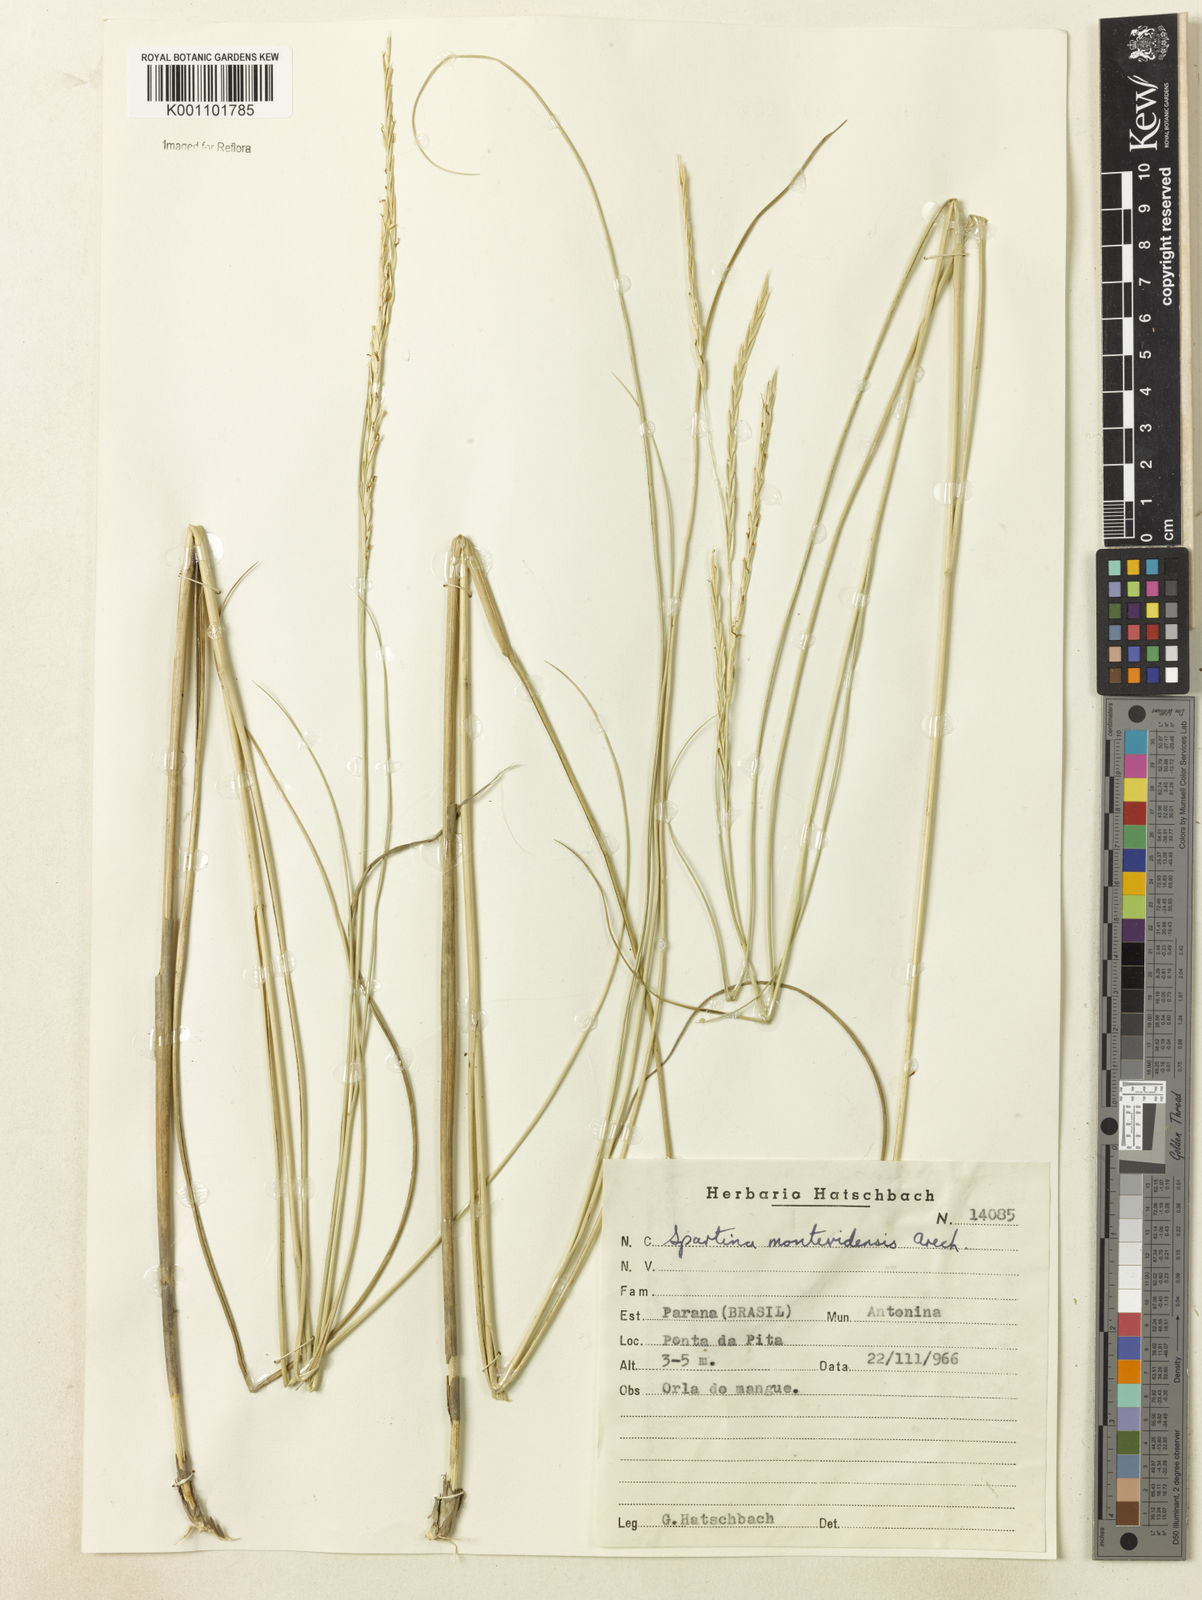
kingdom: Plantae
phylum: Tracheophyta
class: Liliopsida
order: Poales
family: Poaceae
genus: Sporobolus
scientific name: Sporobolus montevidensis
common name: Montevideo dropseed
